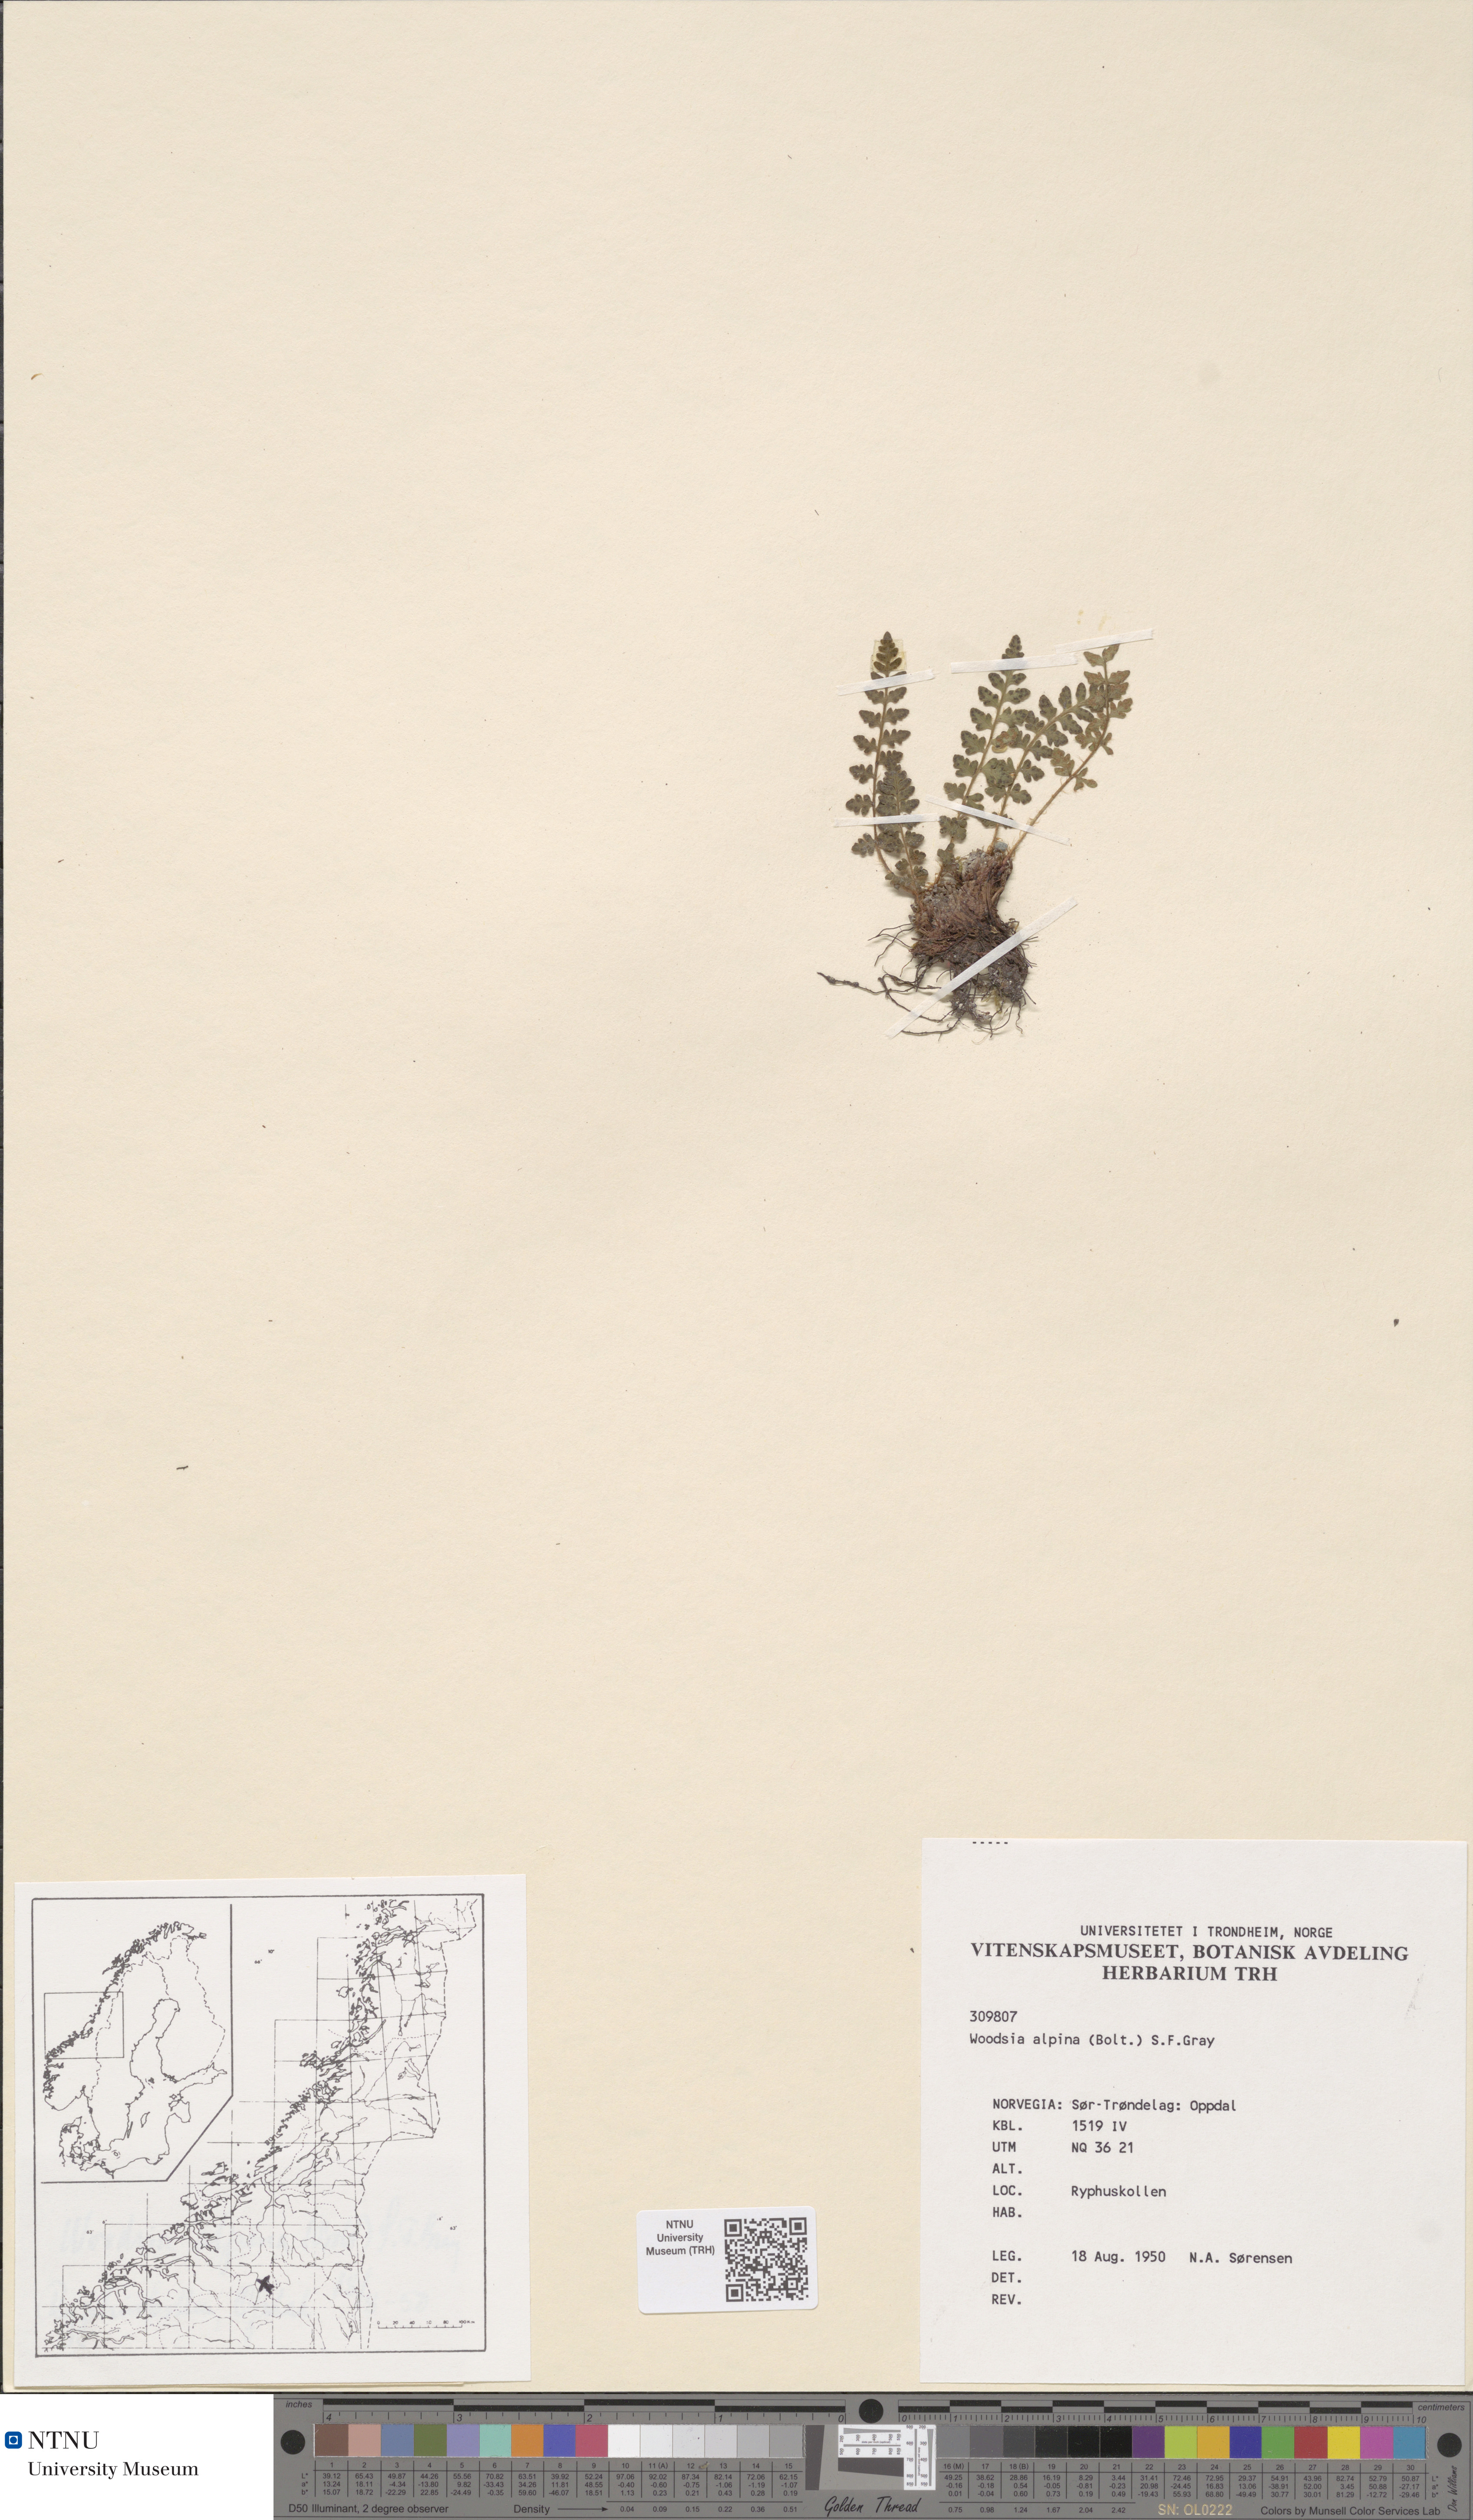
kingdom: Plantae
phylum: Tracheophyta
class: Polypodiopsida
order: Polypodiales
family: Woodsiaceae
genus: Woodsia
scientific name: Woodsia alpina
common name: Alpine woodsia
